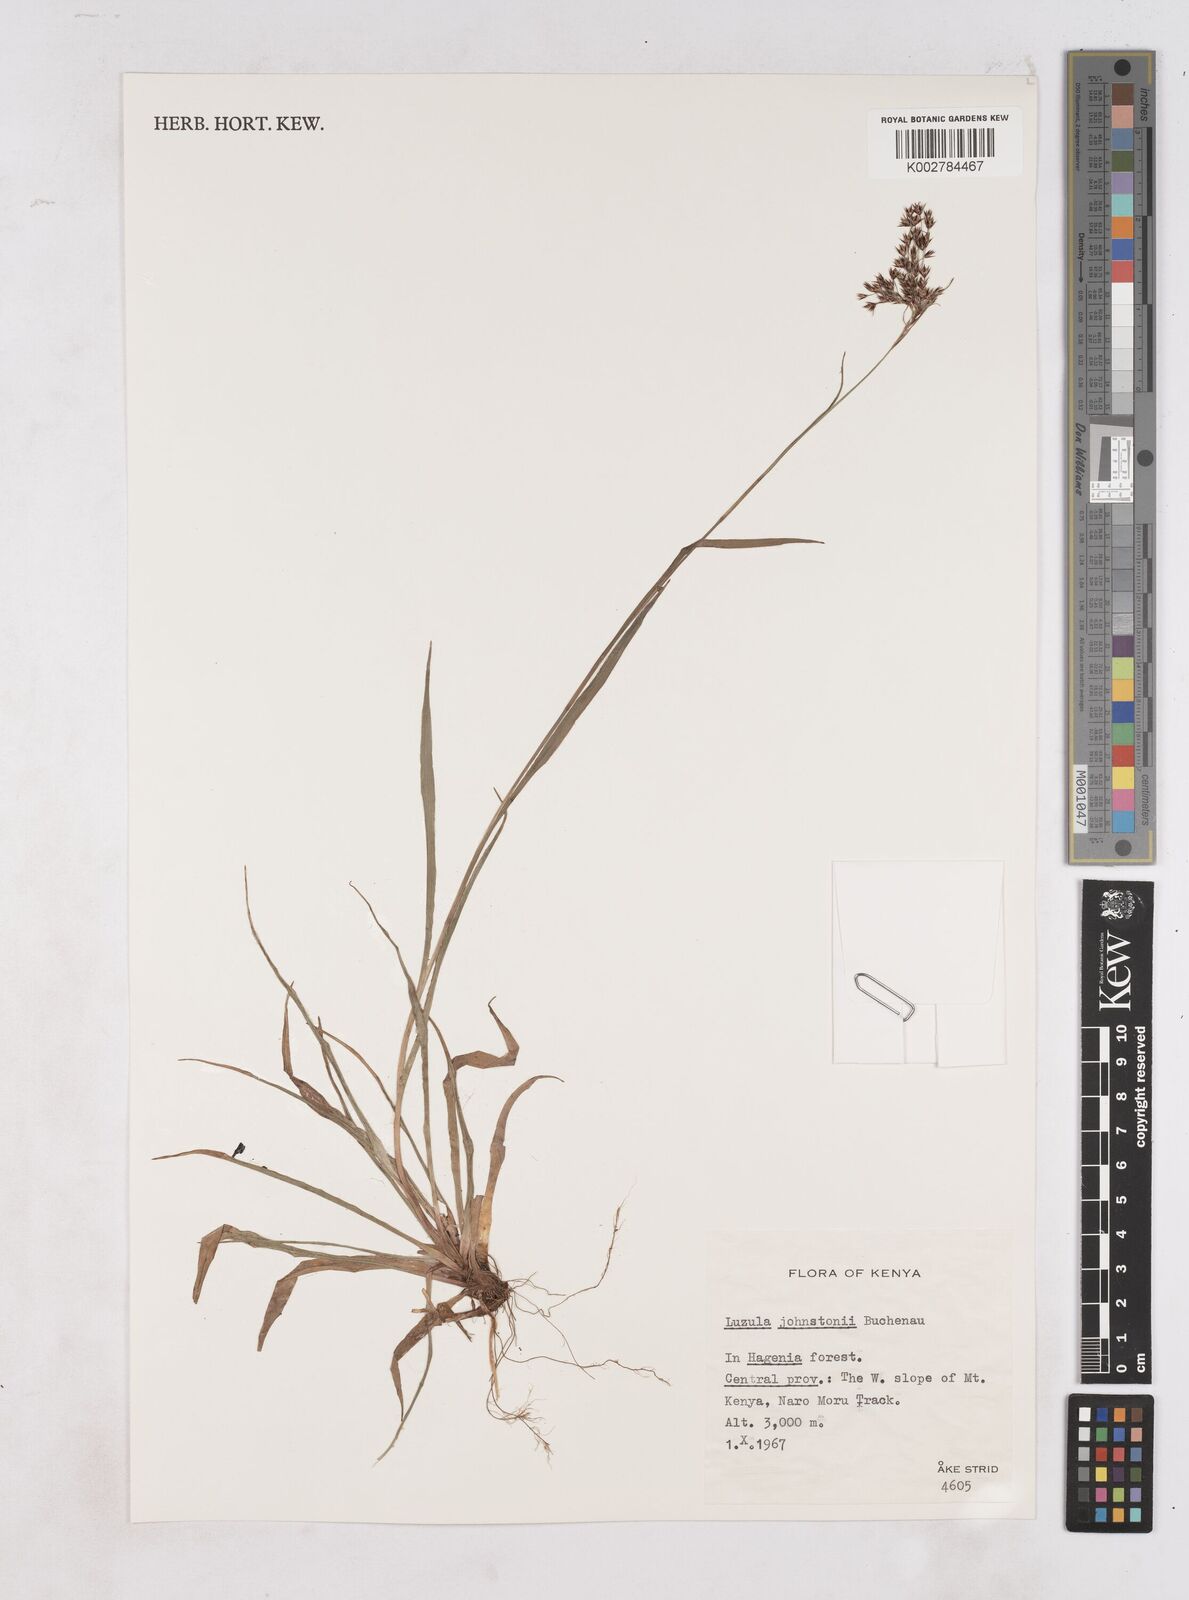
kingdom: Plantae
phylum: Tracheophyta
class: Liliopsida
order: Poales
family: Juncaceae
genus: Luzula
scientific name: Luzula johnstonii
